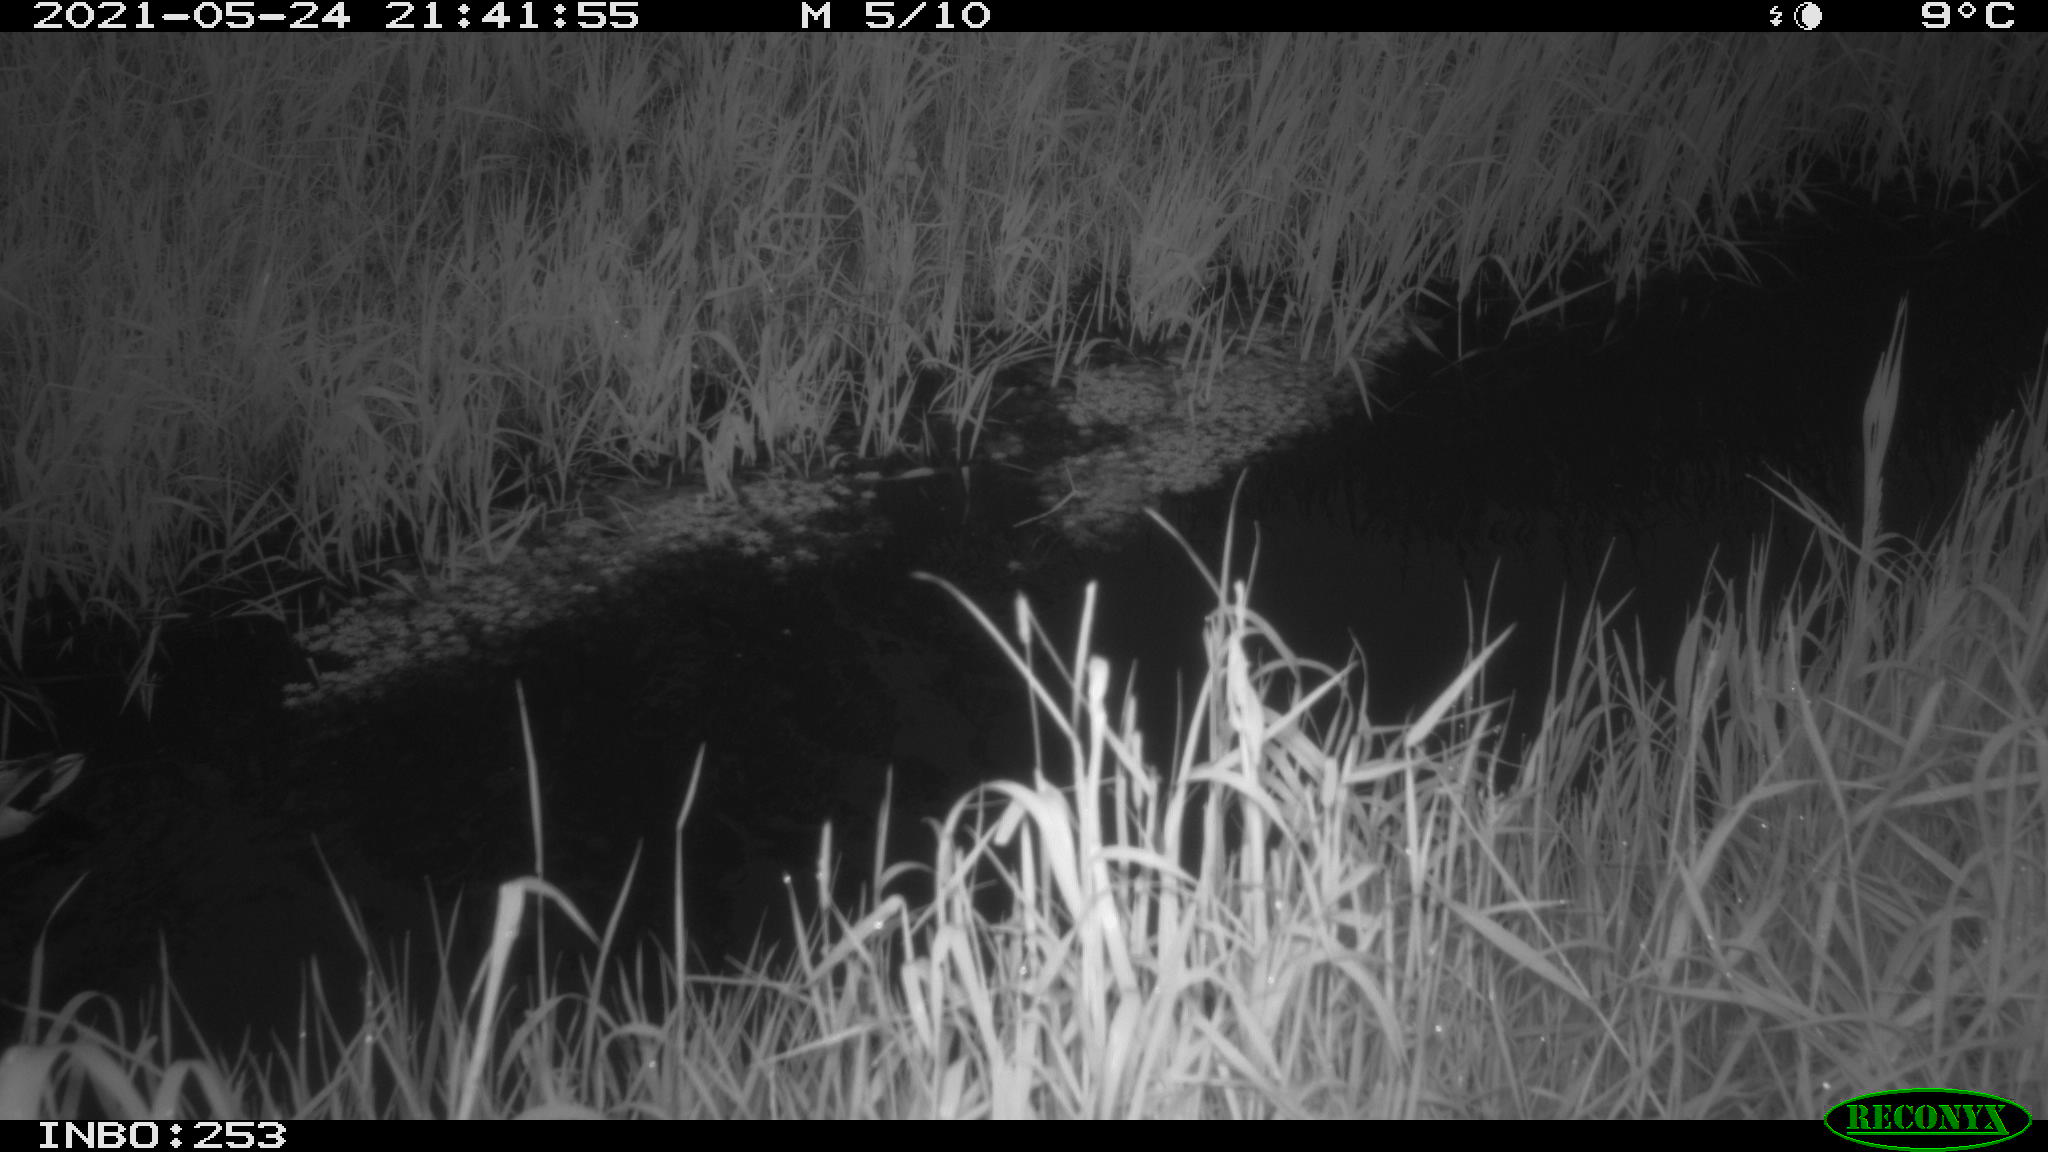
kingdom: Animalia
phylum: Chordata
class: Aves
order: Anseriformes
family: Anatidae
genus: Anas
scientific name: Anas platyrhynchos
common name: Mallard
